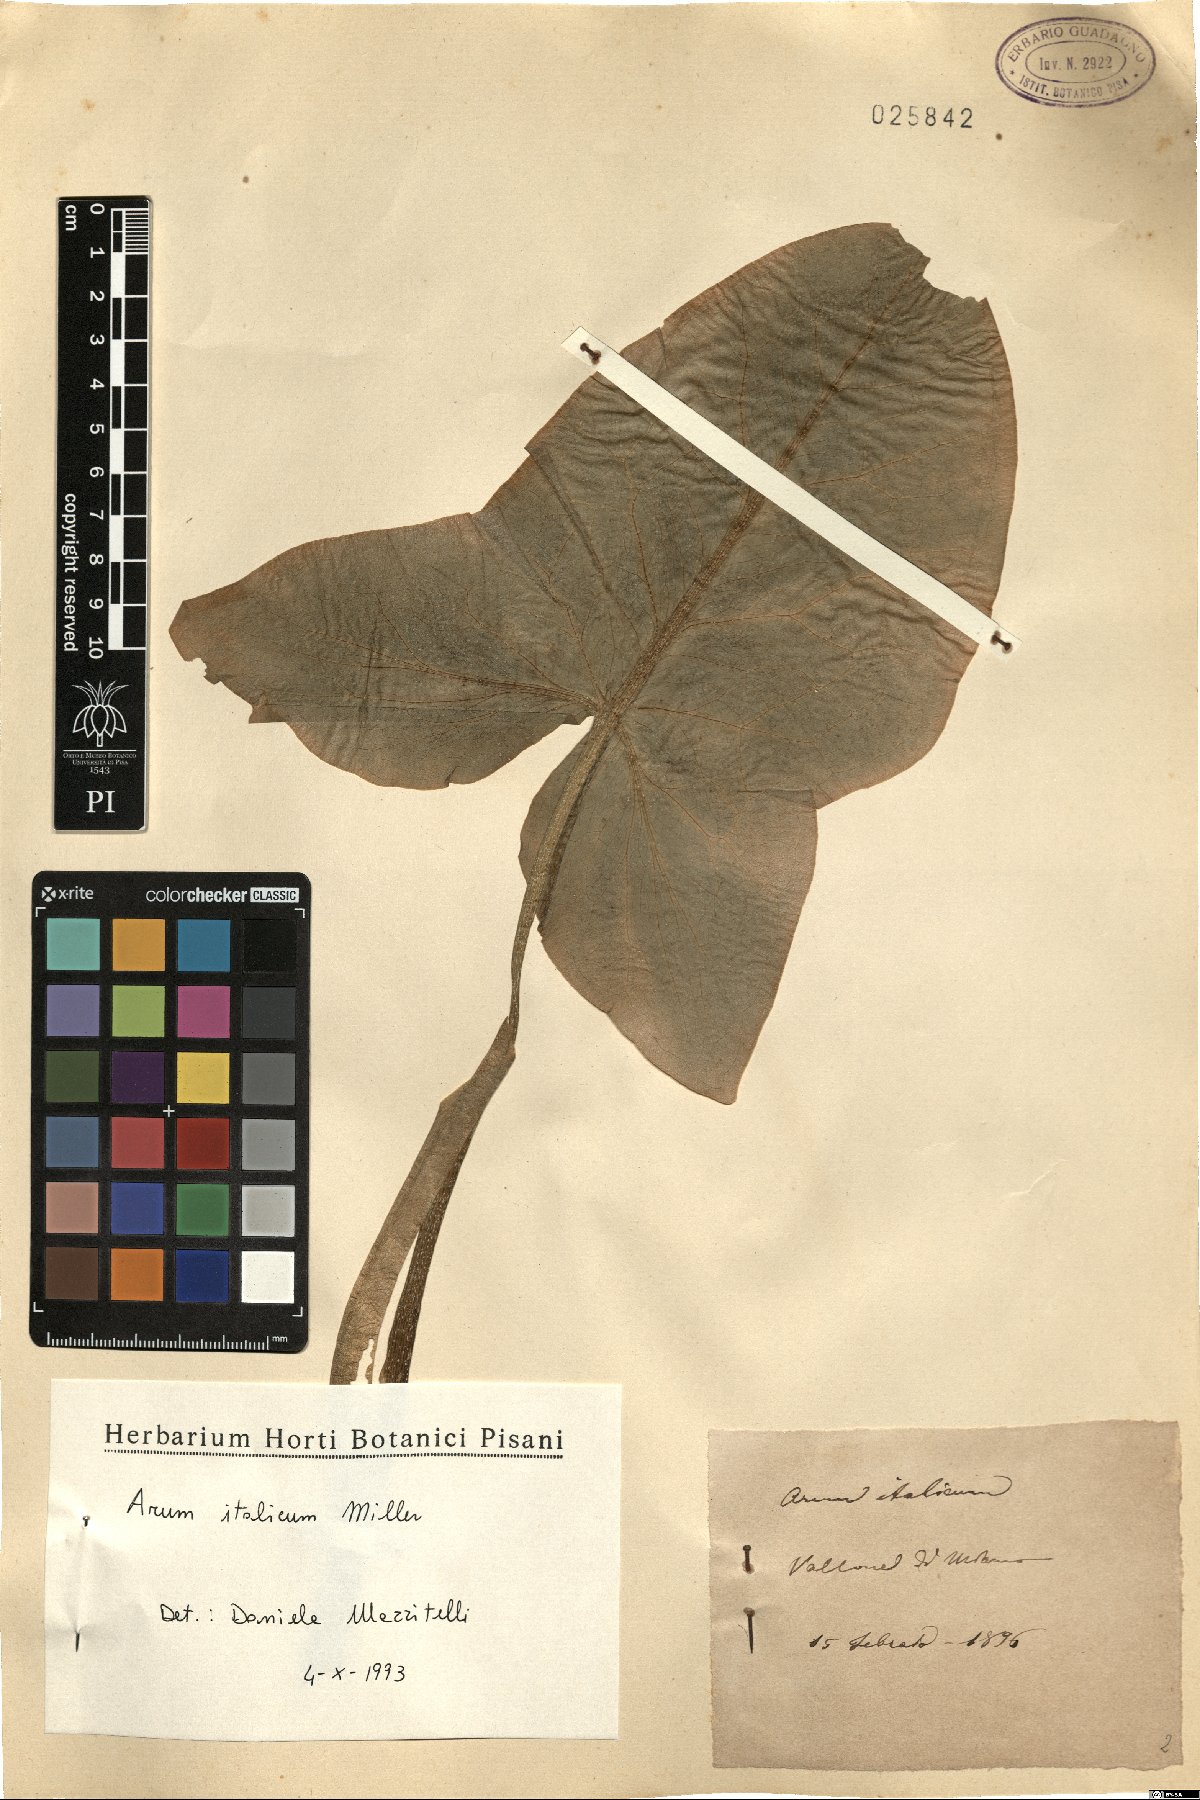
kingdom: Plantae
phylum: Tracheophyta
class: Liliopsida
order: Alismatales
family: Araceae
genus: Arum
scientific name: Arum italicum
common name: Italian lords-and-ladies
